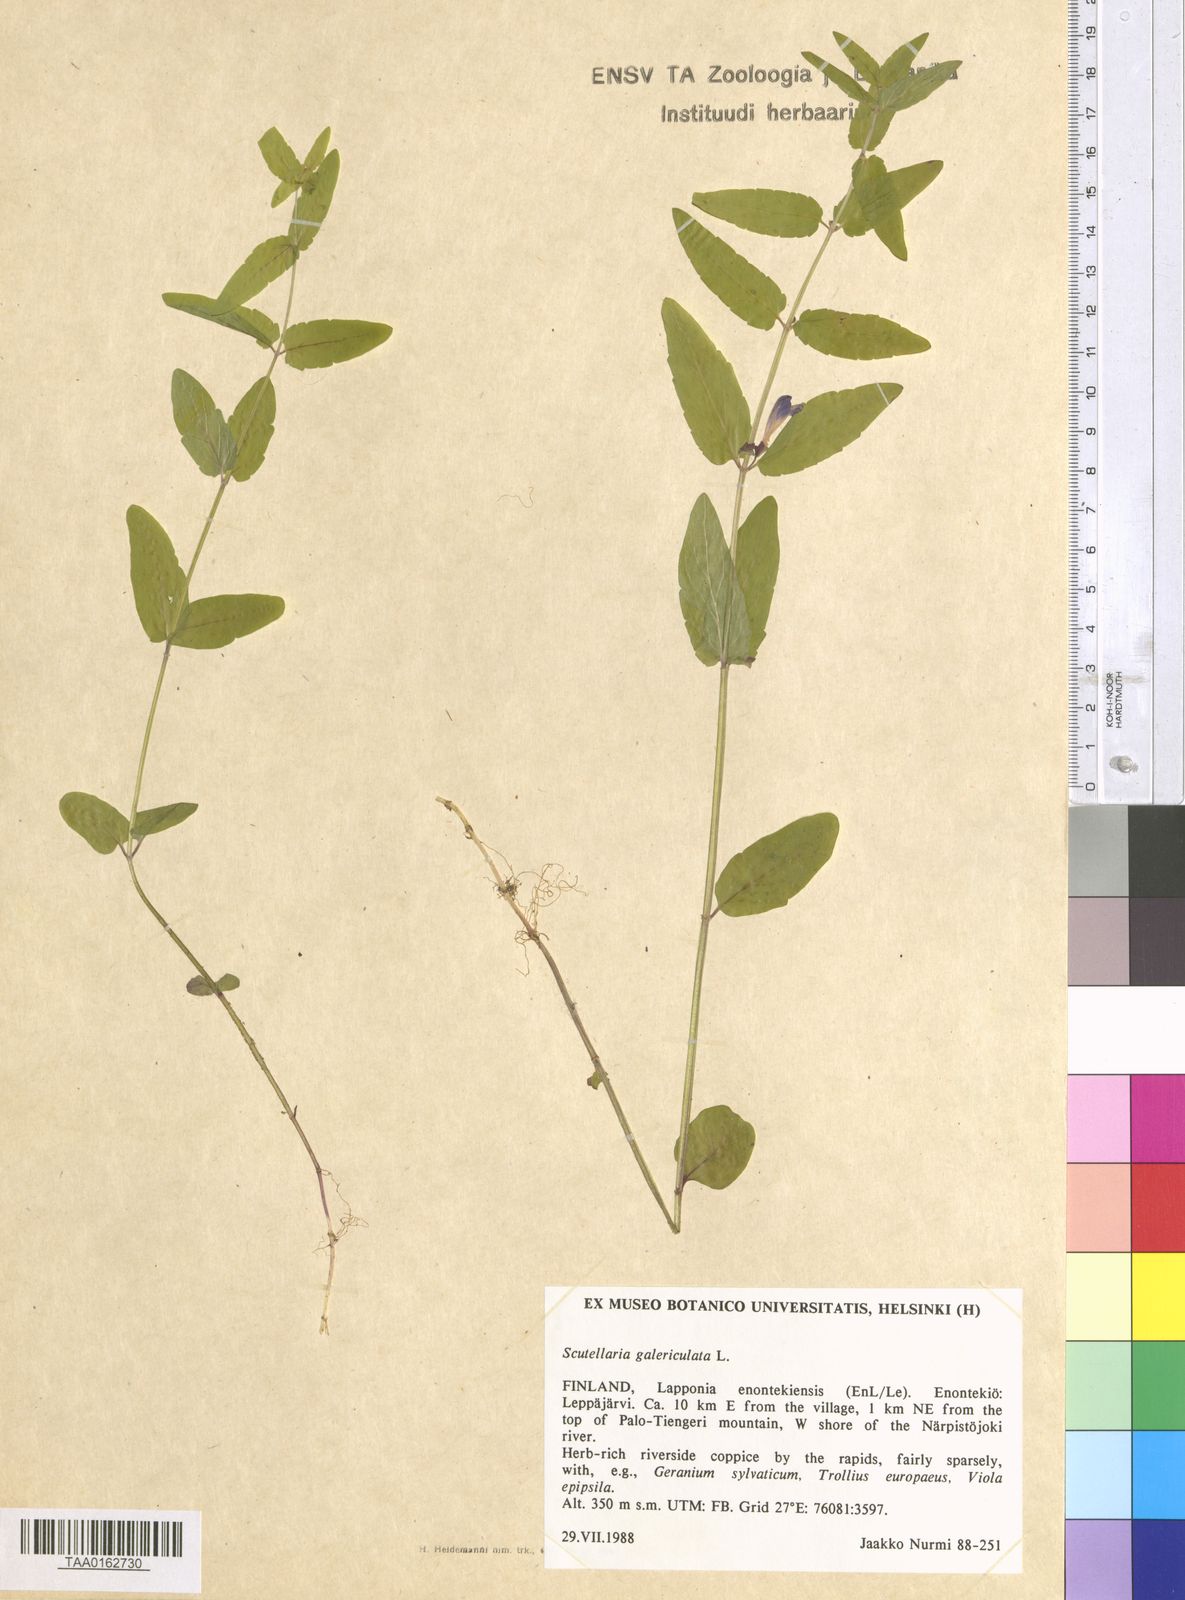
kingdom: Plantae
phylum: Tracheophyta
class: Magnoliopsida
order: Lamiales
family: Lamiaceae
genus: Scutellaria
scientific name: Scutellaria galericulata
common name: Skullcap
